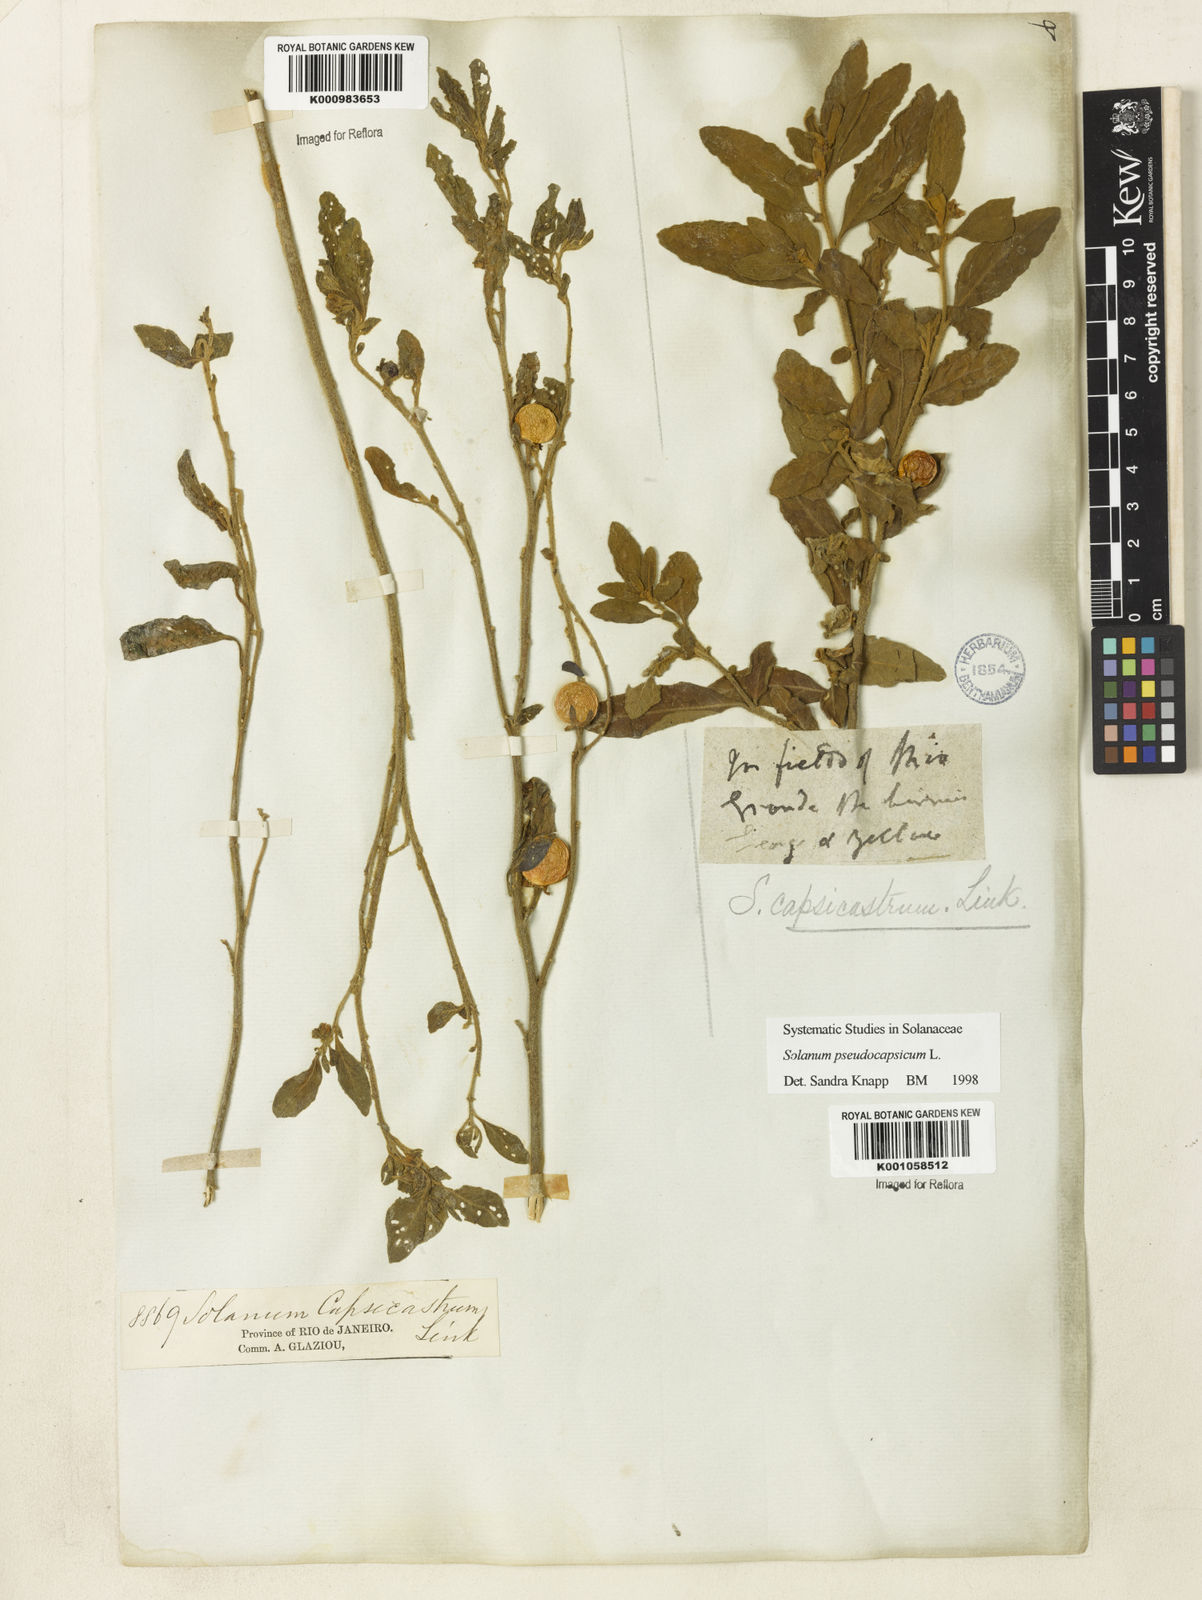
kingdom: Plantae
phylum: Tracheophyta
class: Magnoliopsida
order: Solanales
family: Solanaceae
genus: Solanum
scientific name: Solanum pseudocapsicum
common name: Jerusalem cherry
